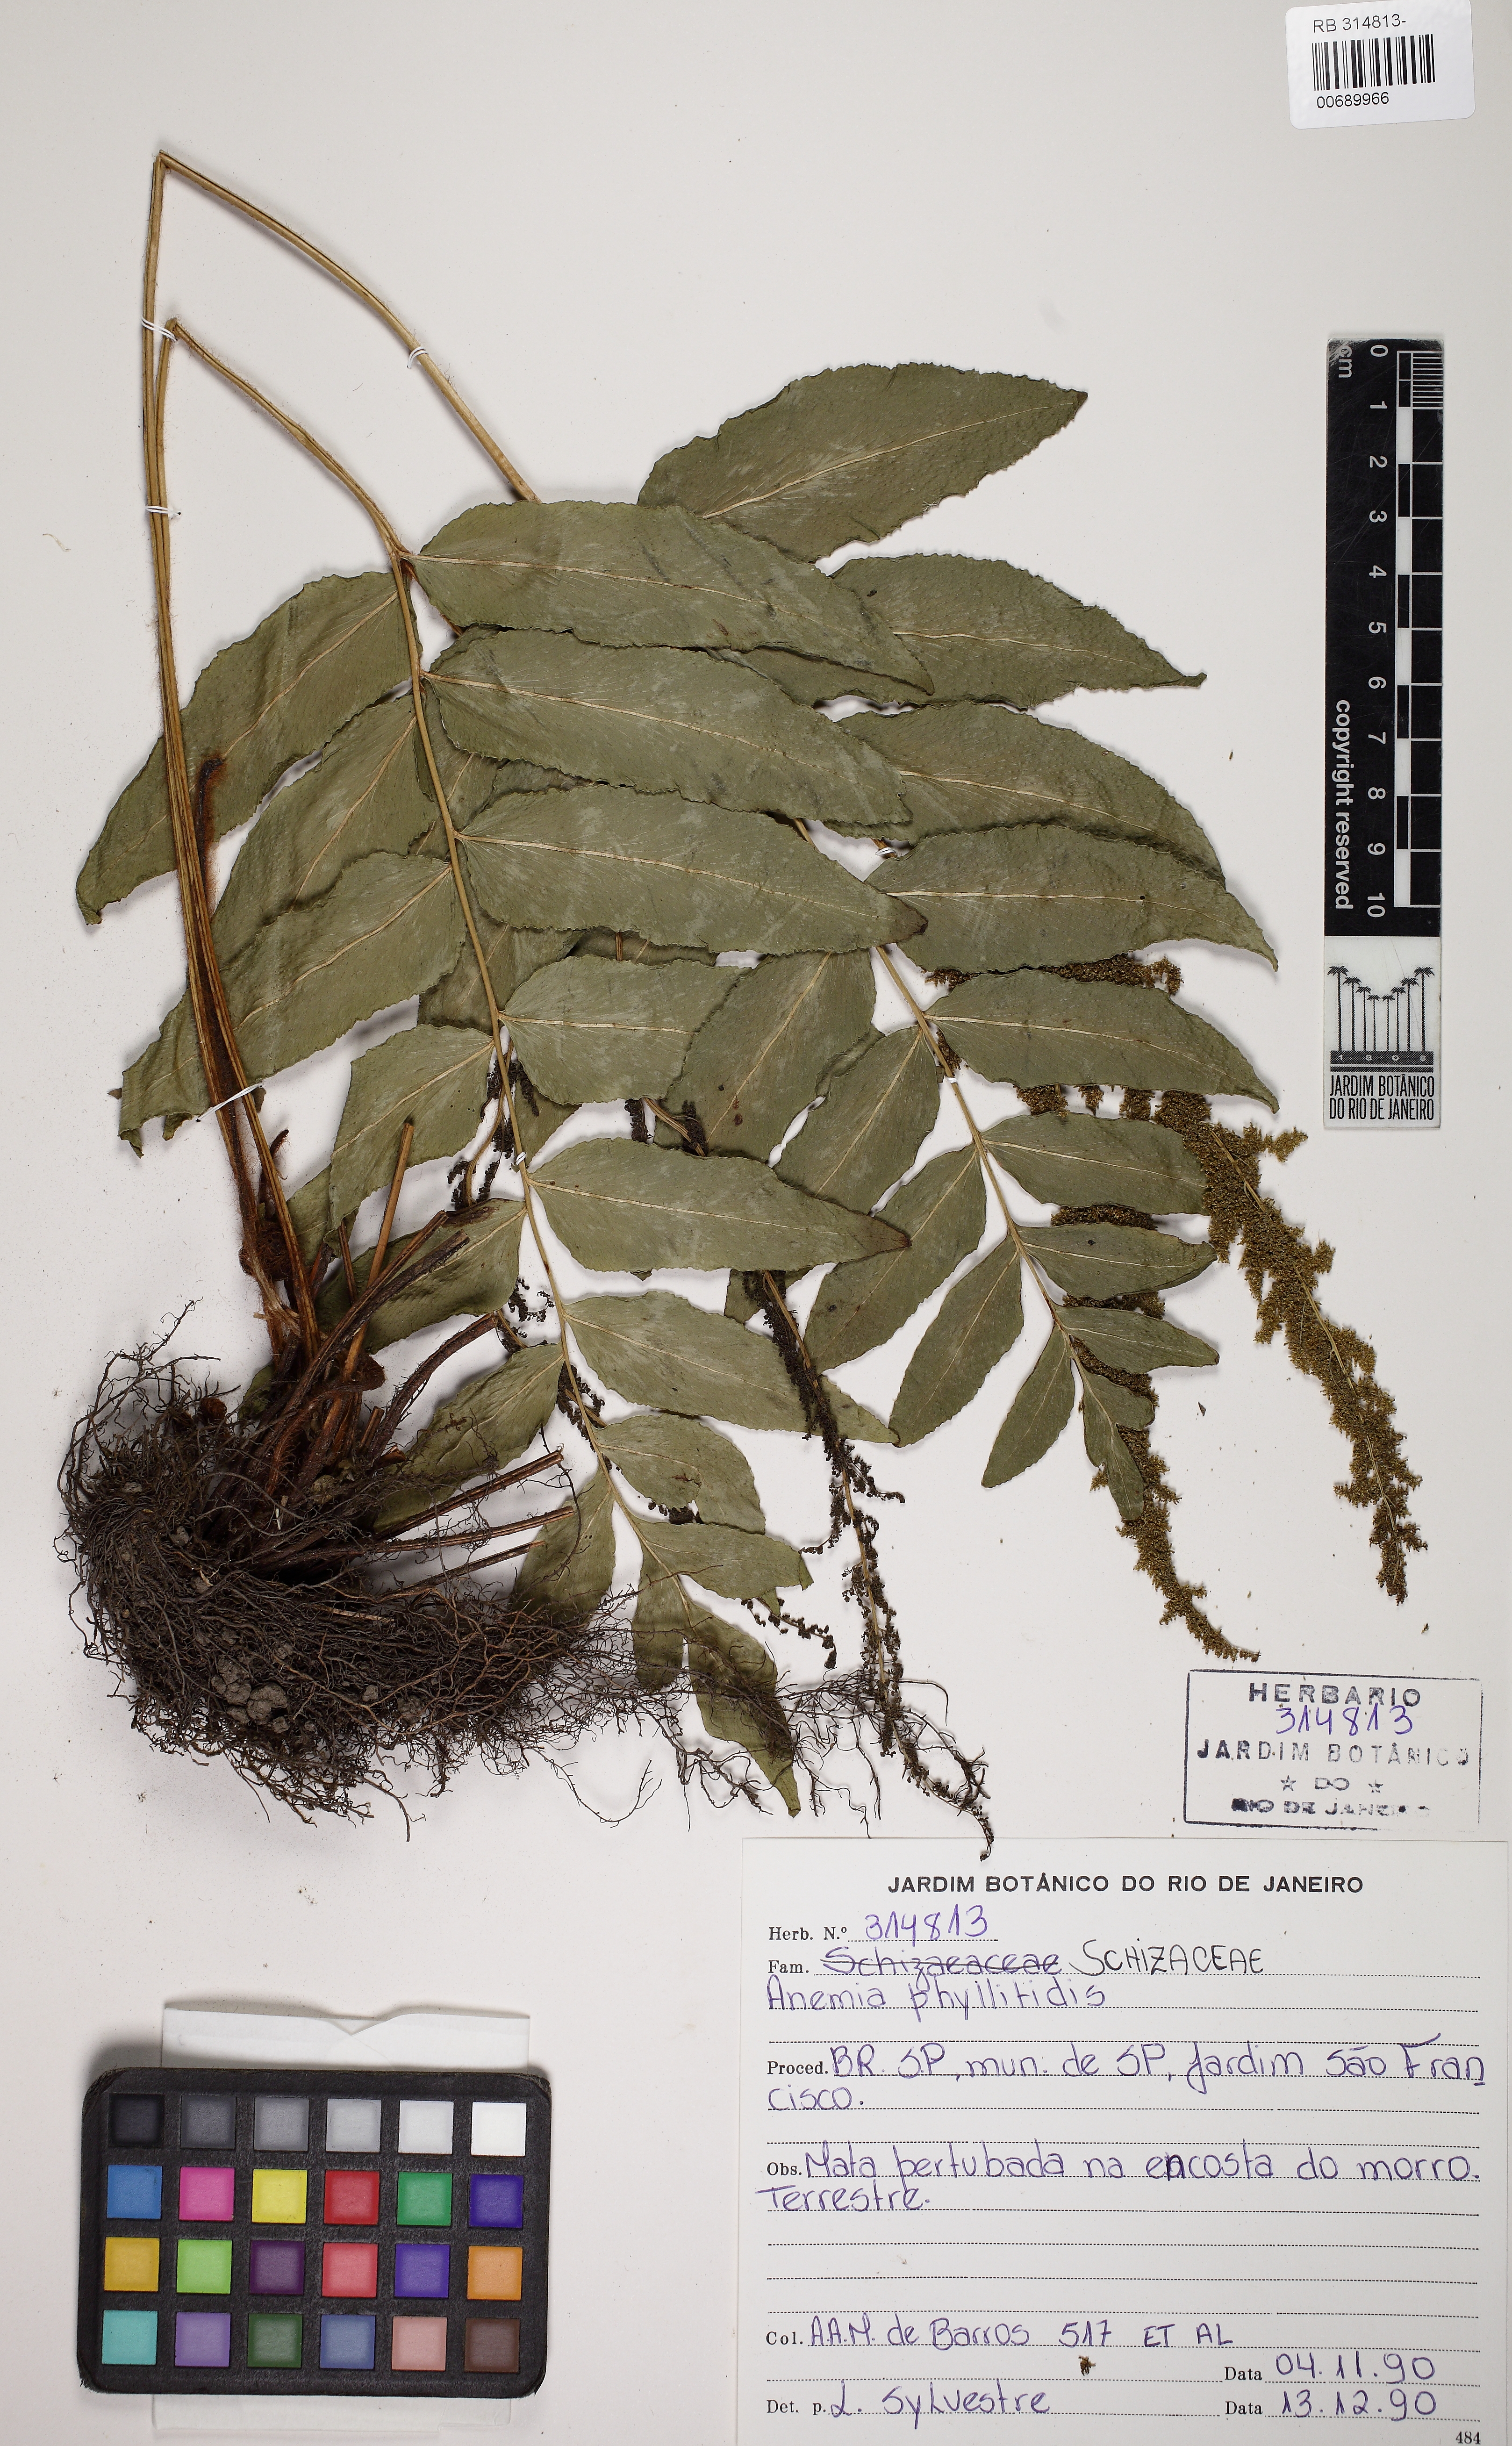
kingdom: Plantae
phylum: Tracheophyta
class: Polypodiopsida
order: Schizaeales
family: Anemiaceae
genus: Anemia
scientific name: Anemia phyllitidis
